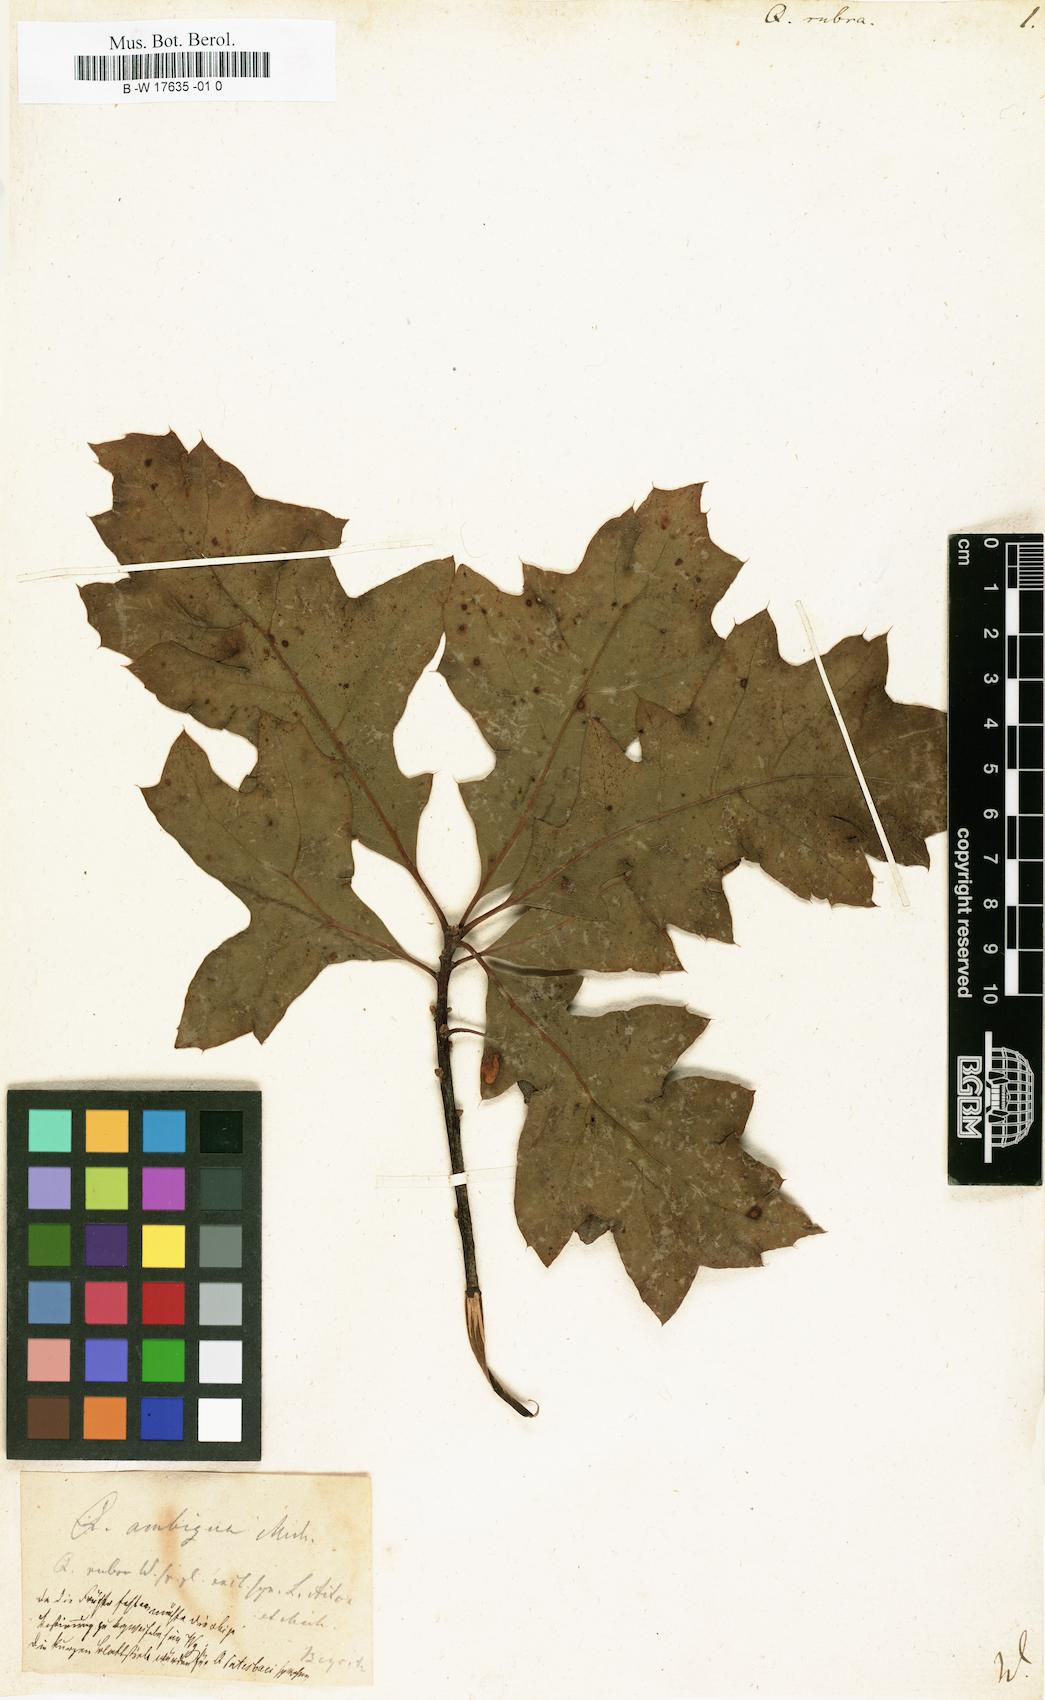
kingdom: Plantae
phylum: Tracheophyta
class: Magnoliopsida
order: Fagales
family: Fagaceae
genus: Quercus
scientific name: Quercus rubra
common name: Red oak
